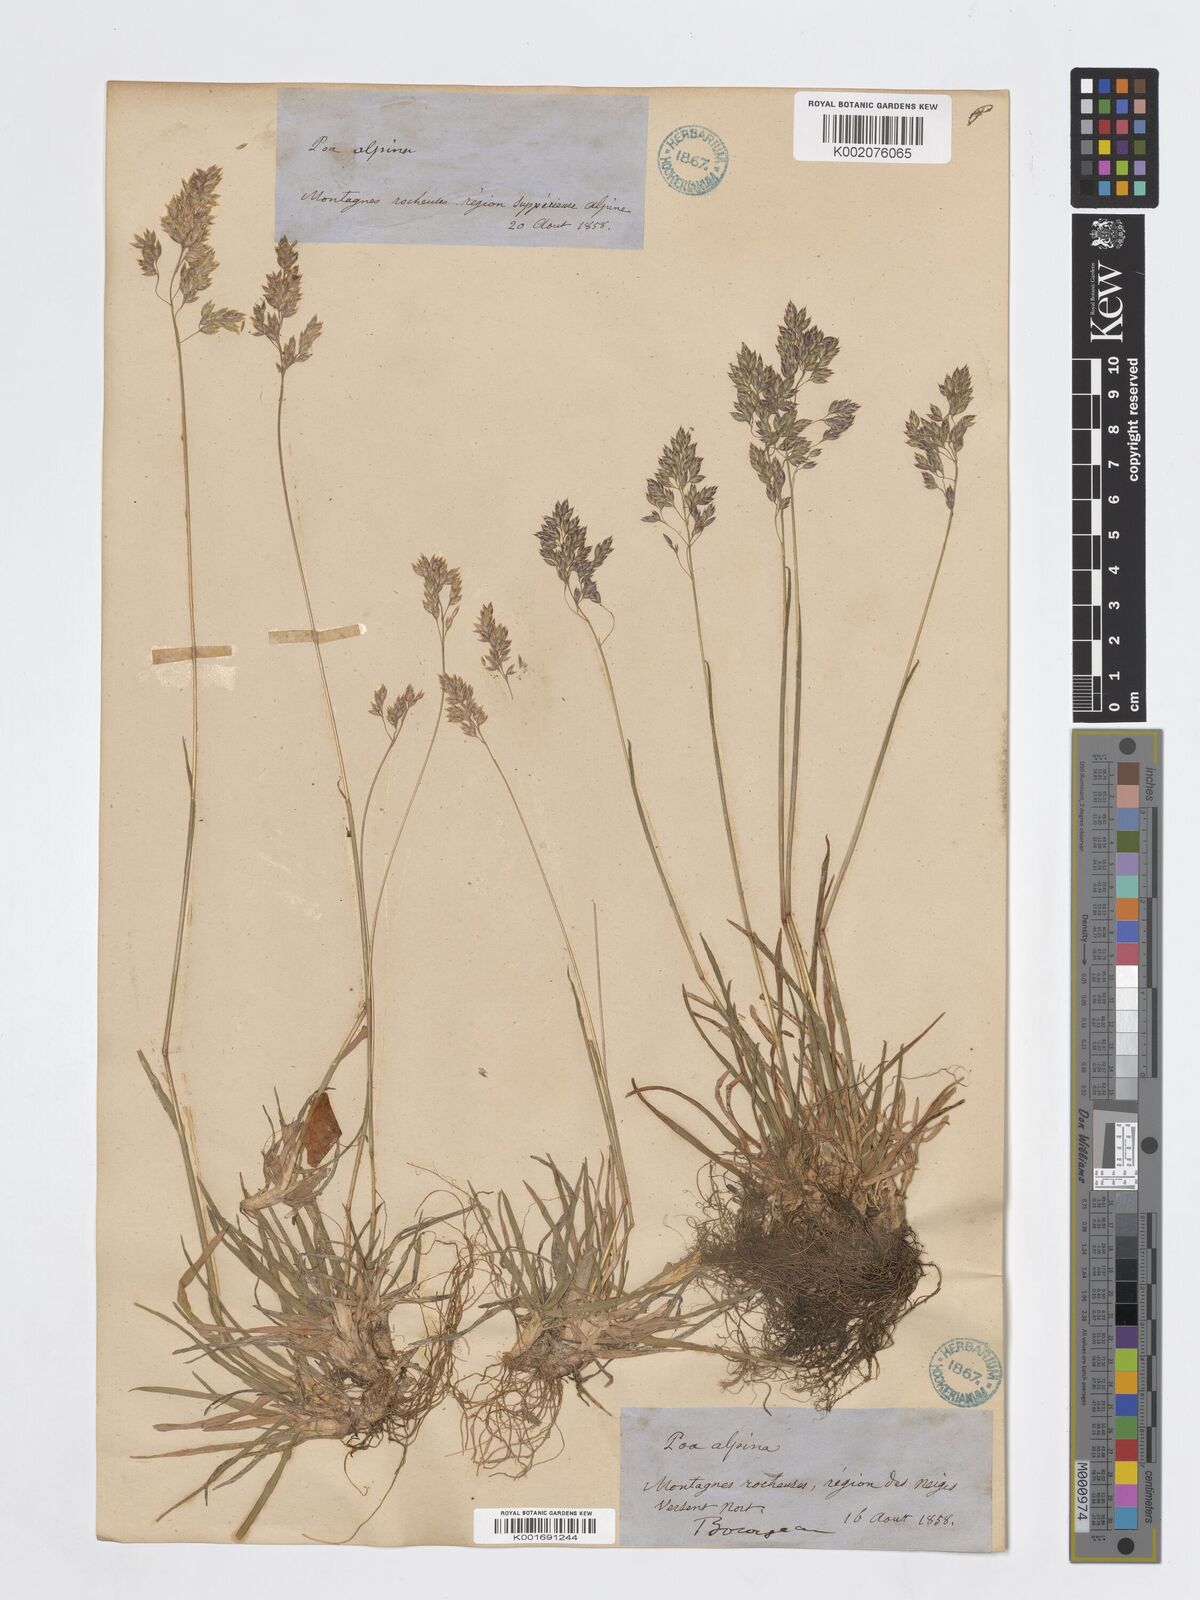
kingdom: Plantae
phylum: Tracheophyta
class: Liliopsida
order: Poales
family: Poaceae
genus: Poa
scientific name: Poa alpina
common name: Alpine bluegrass
